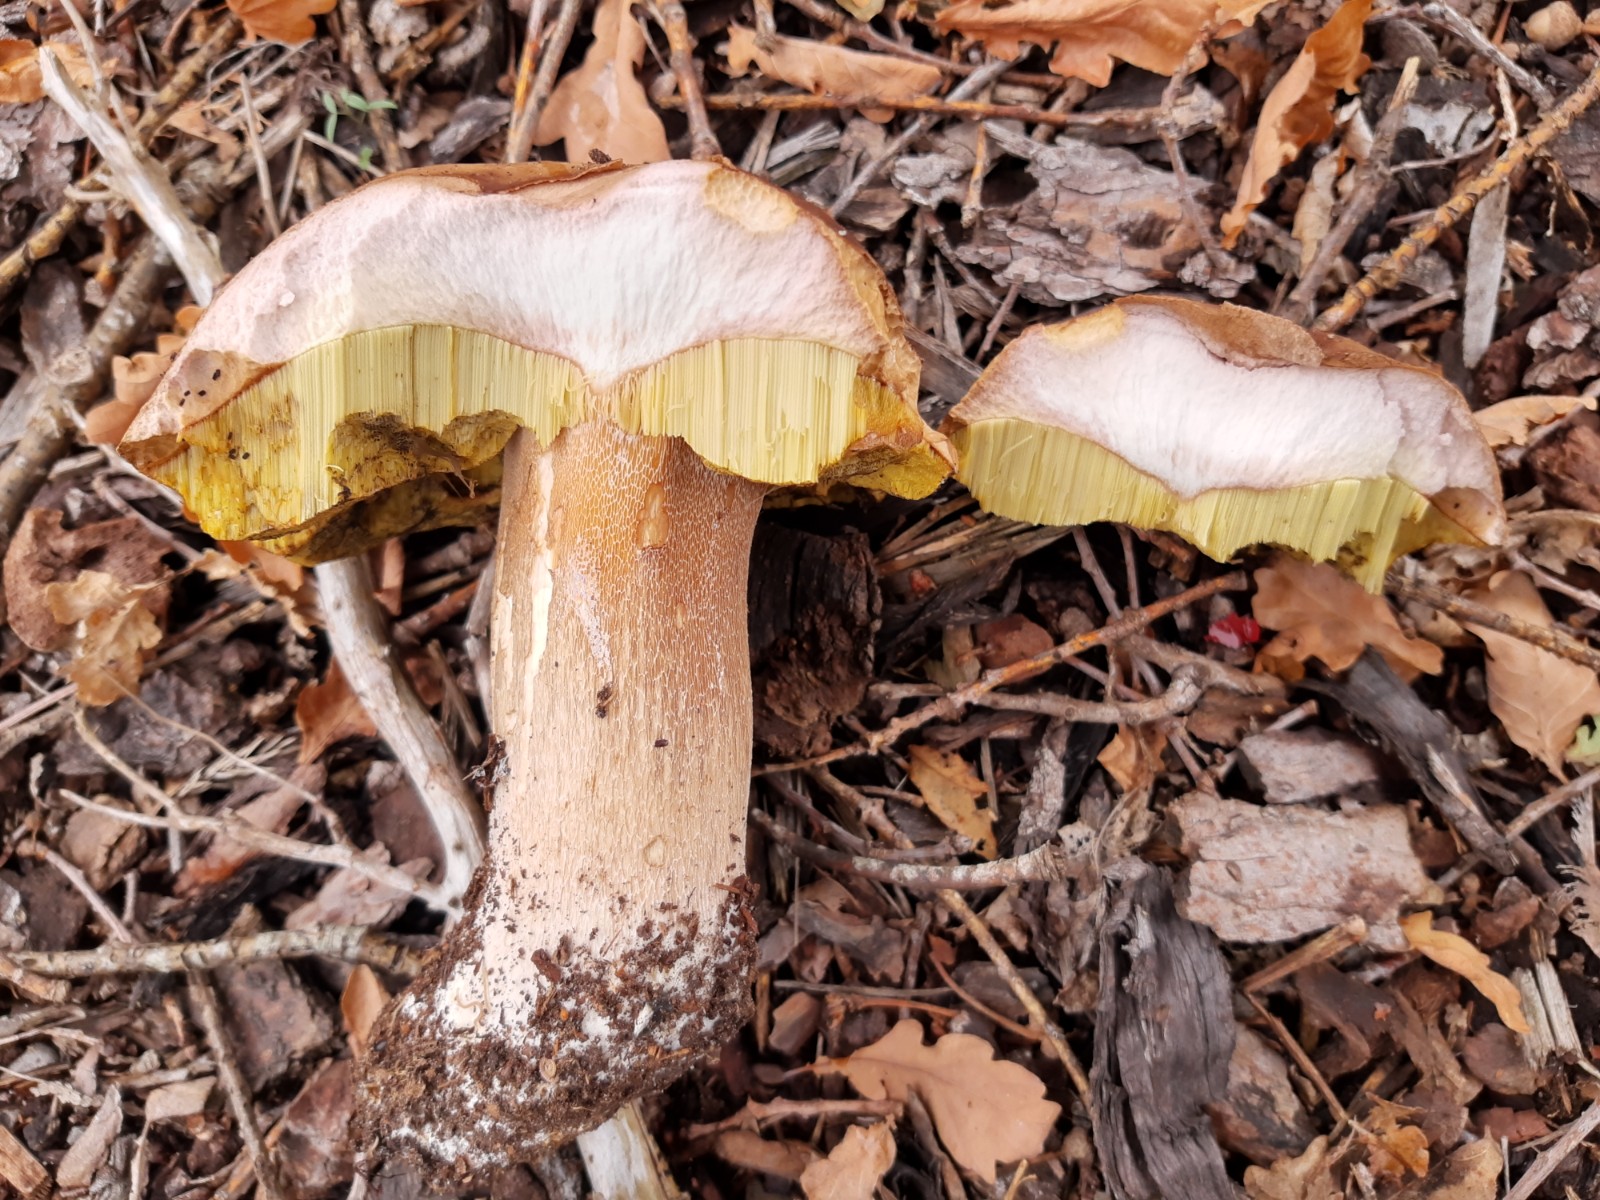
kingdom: Fungi
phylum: Basidiomycota
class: Agaricomycetes
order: Boletales
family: Boletaceae
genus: Boletus
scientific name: Boletus edulis
